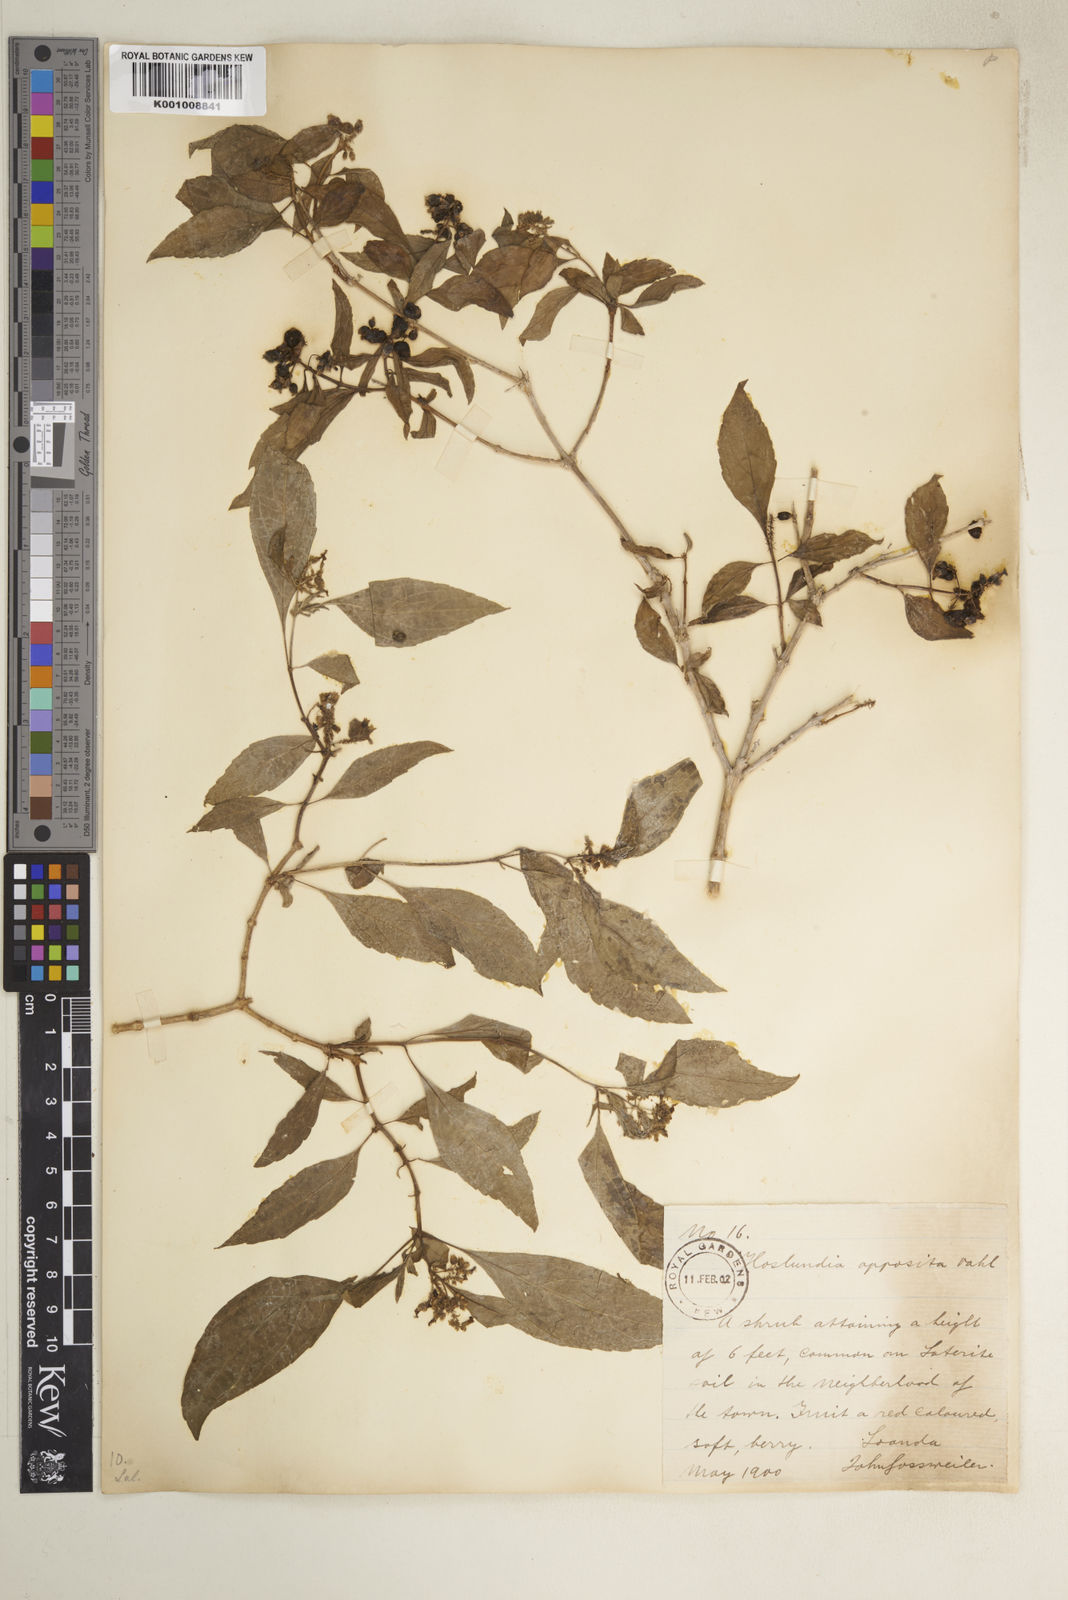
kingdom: Plantae
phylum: Tracheophyta
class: Magnoliopsida
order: Lamiales
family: Lamiaceae
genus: Hoslundia
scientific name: Hoslundia opposita
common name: Kamyuye
